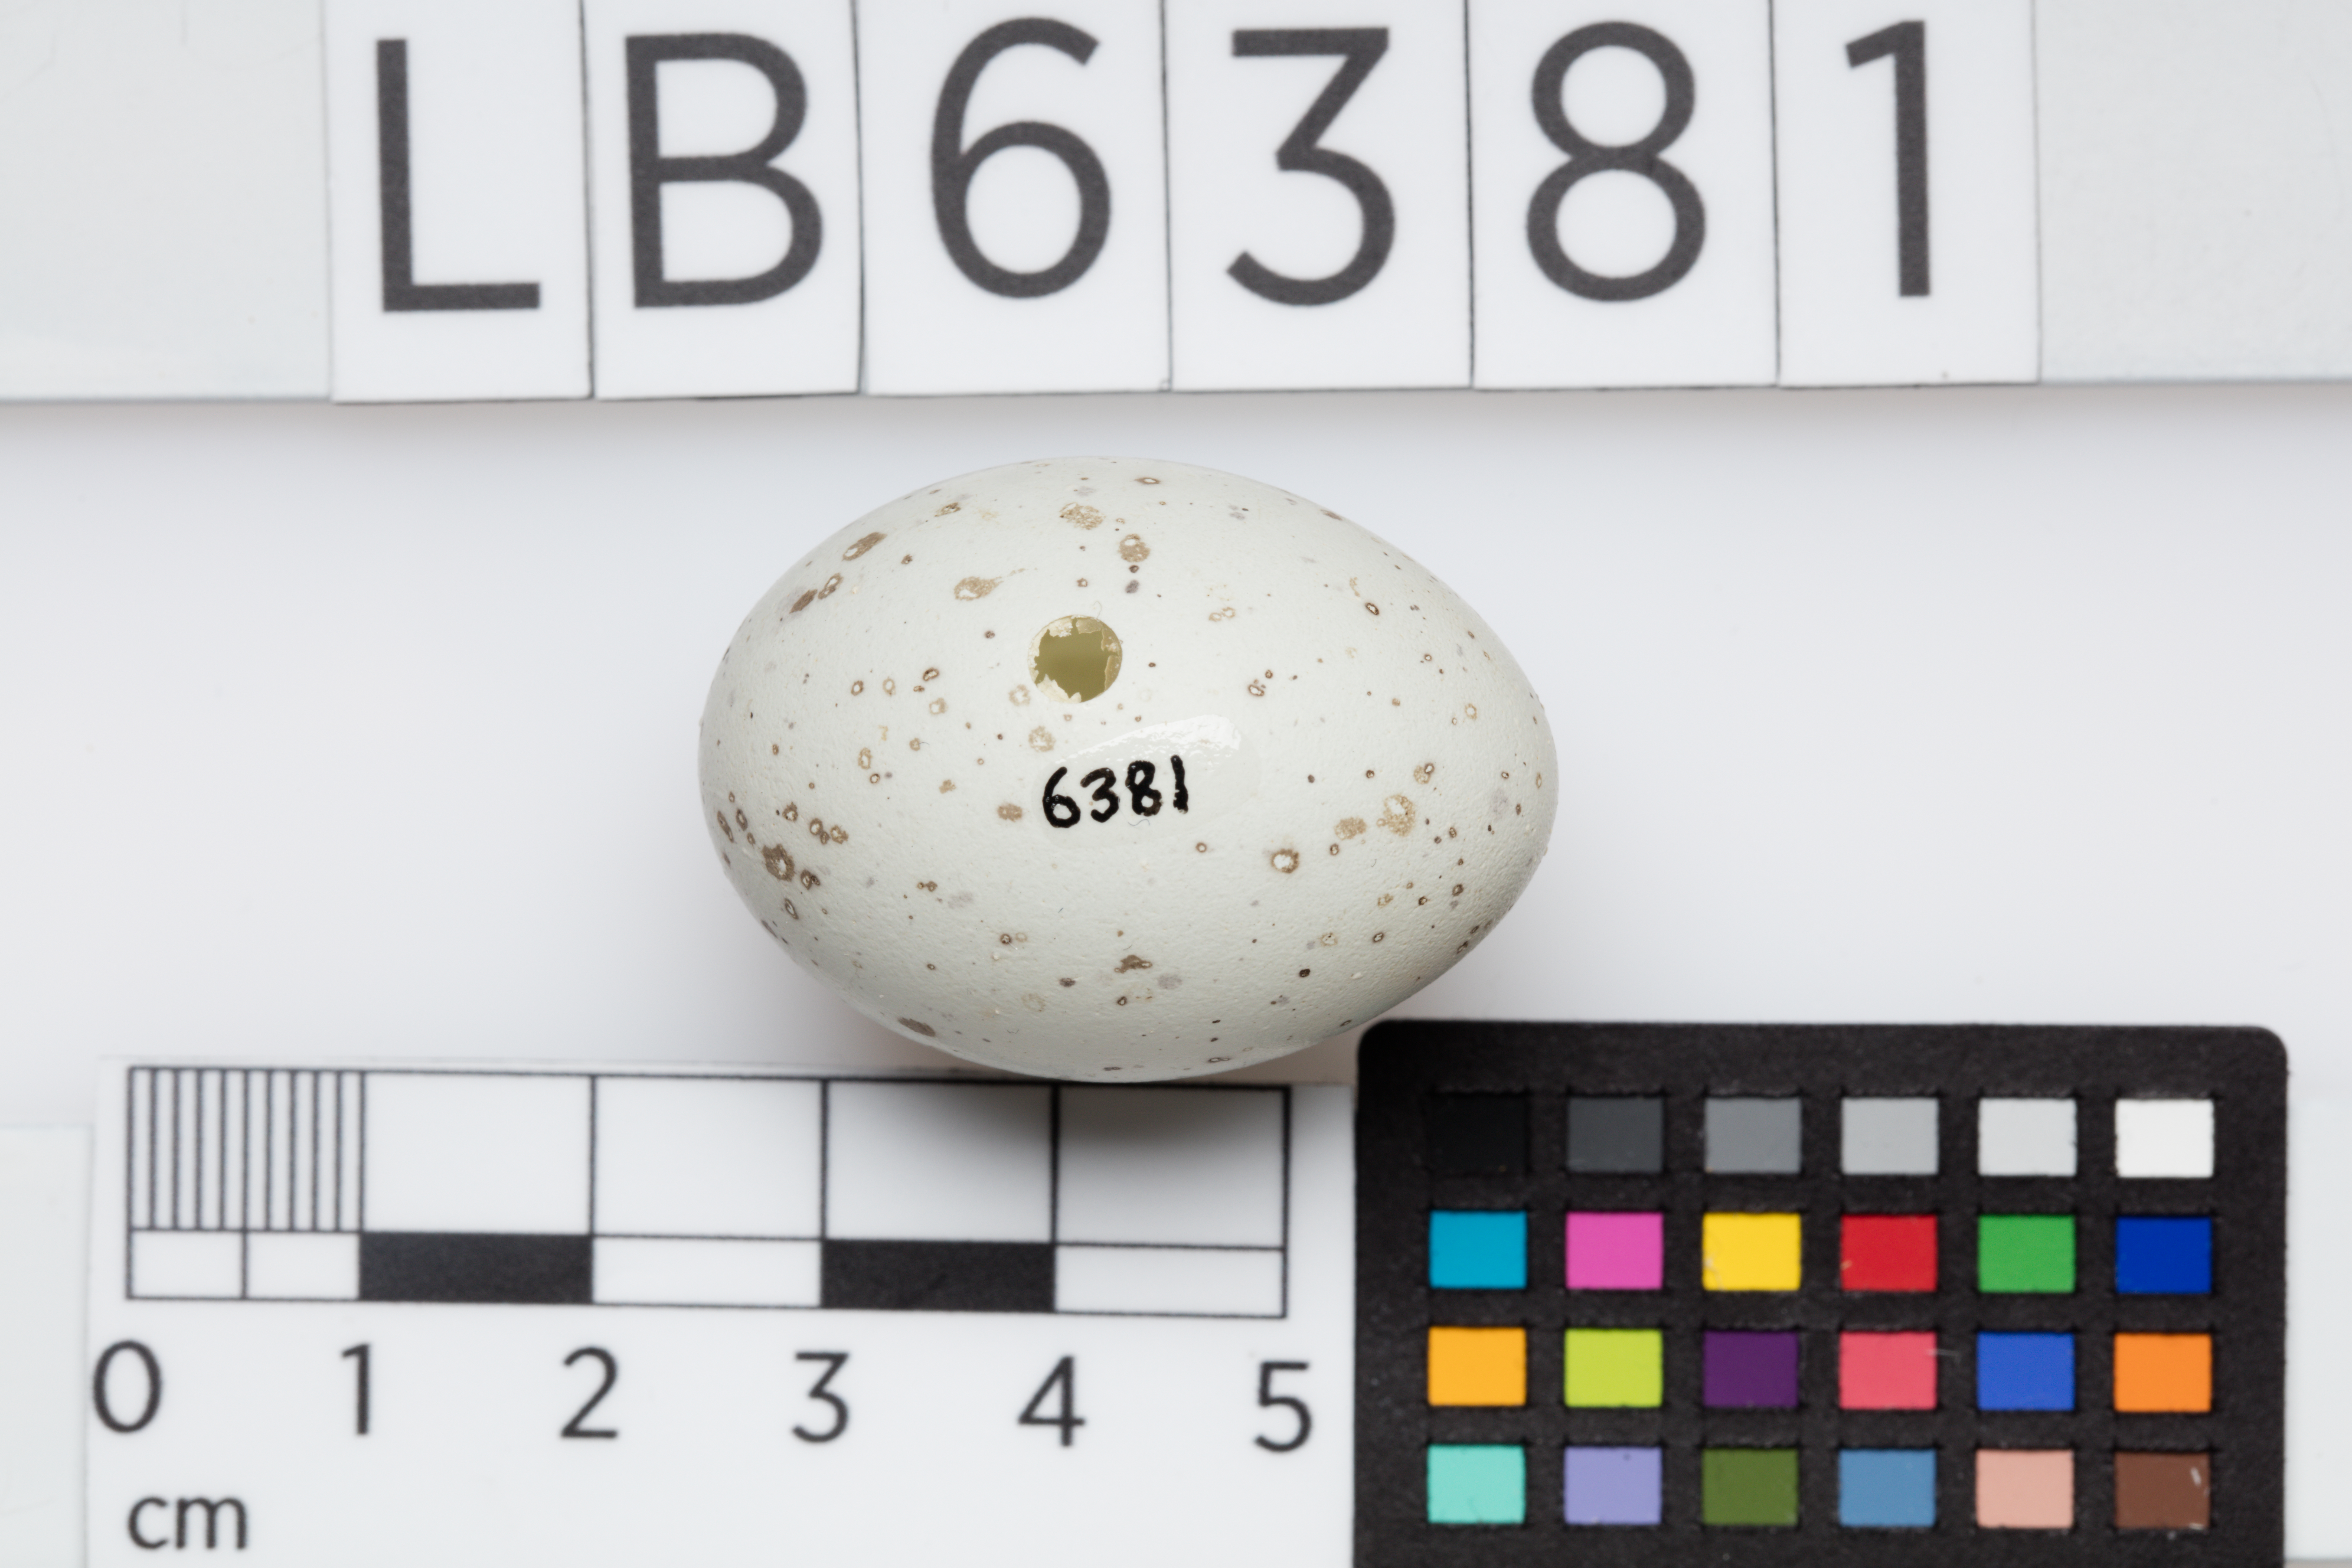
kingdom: Animalia
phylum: Chordata
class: Aves
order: Passeriformes
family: Callaeatidae
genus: Callaeas
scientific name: Callaeas cinereus
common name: South island kokako
